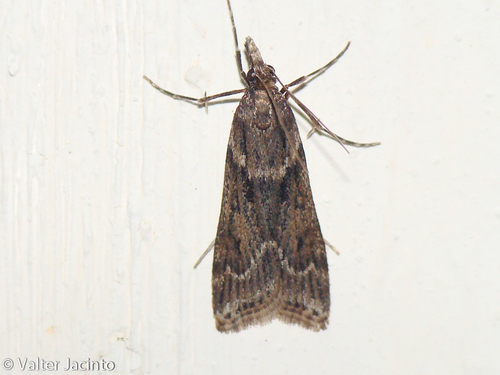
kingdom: Animalia
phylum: Arthropoda
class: Insecta
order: Lepidoptera
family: Crambidae
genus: Eudonia
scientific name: Eudonia angustea
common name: Narrow-winged grey
